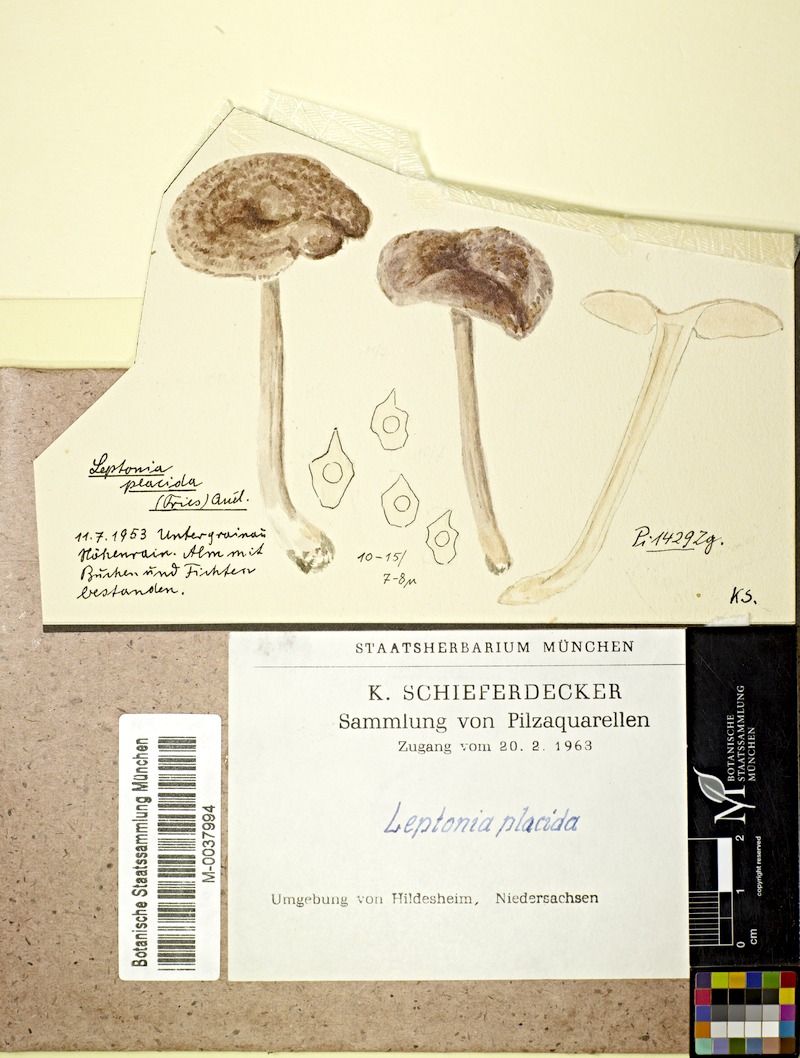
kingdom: Fungi
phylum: Basidiomycota
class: Agaricomycetes
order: Agaricales
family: Entolomataceae
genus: Entoloma
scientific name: Entoloma placidum
